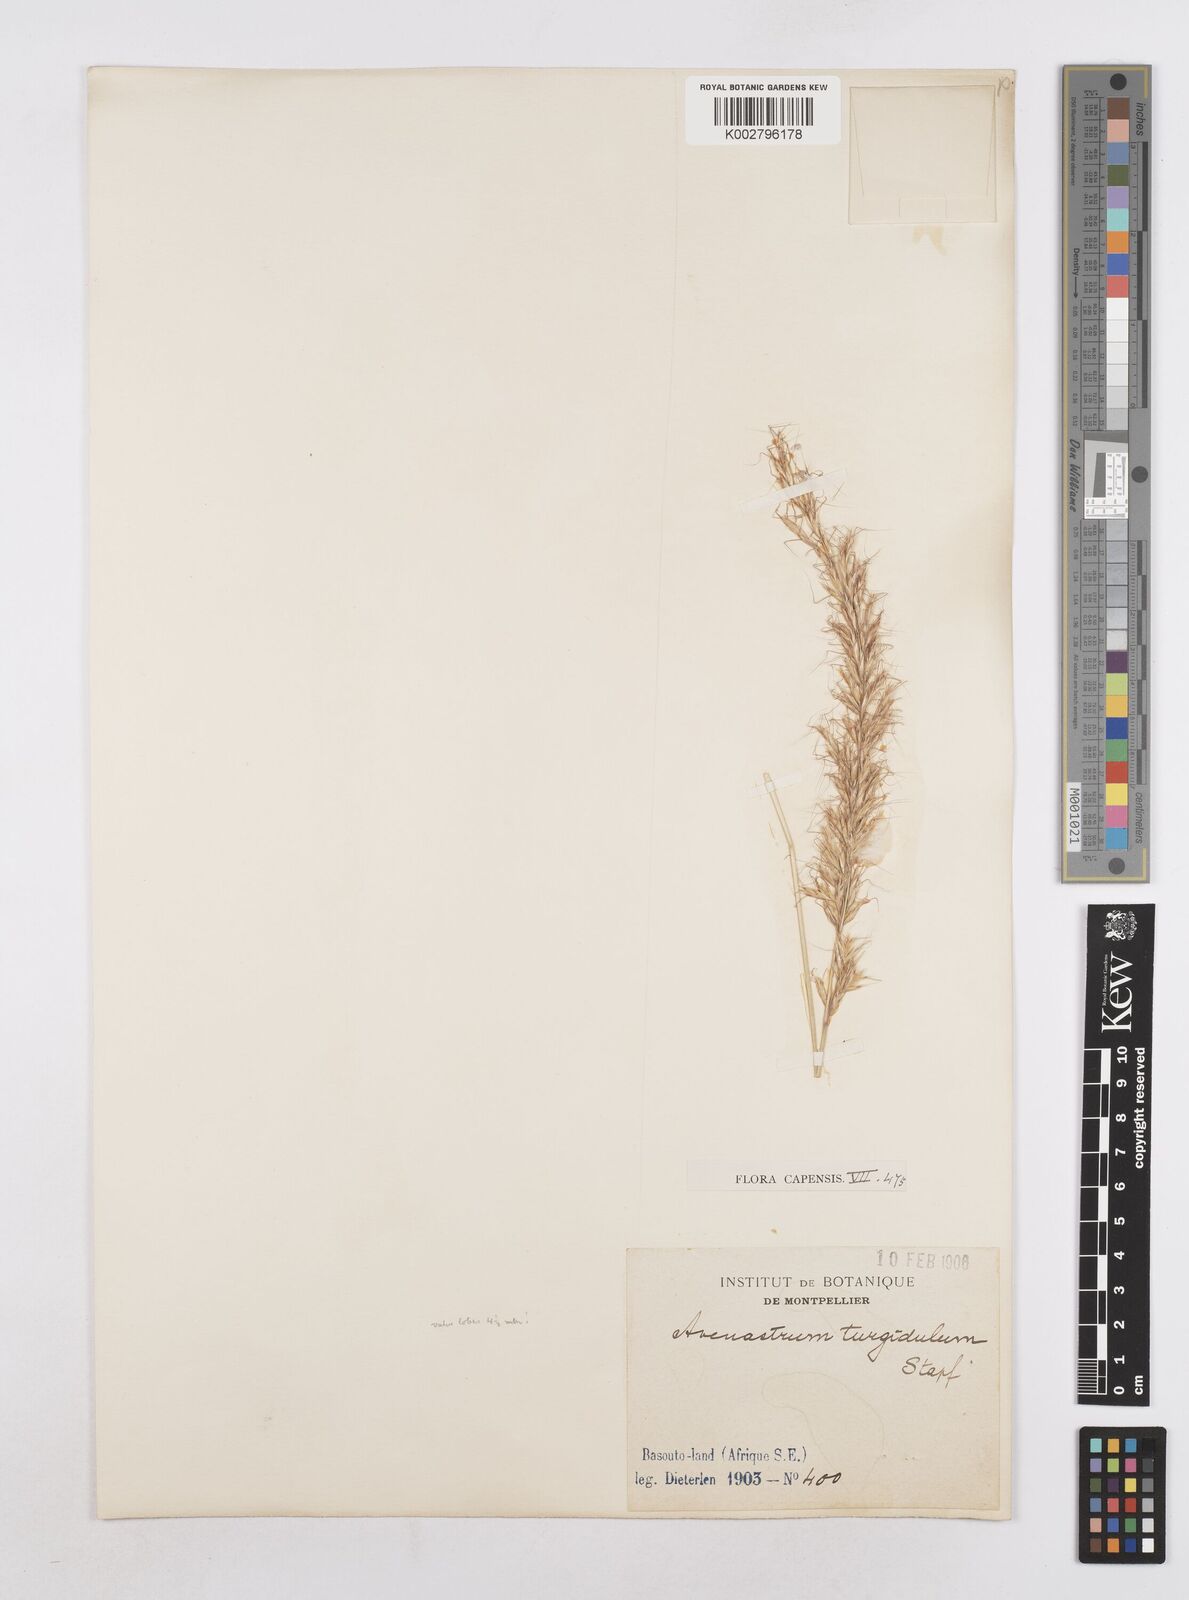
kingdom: Plantae
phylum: Tracheophyta
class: Liliopsida
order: Poales
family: Poaceae
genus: Trisetopsis
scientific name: Trisetopsis imberbis
